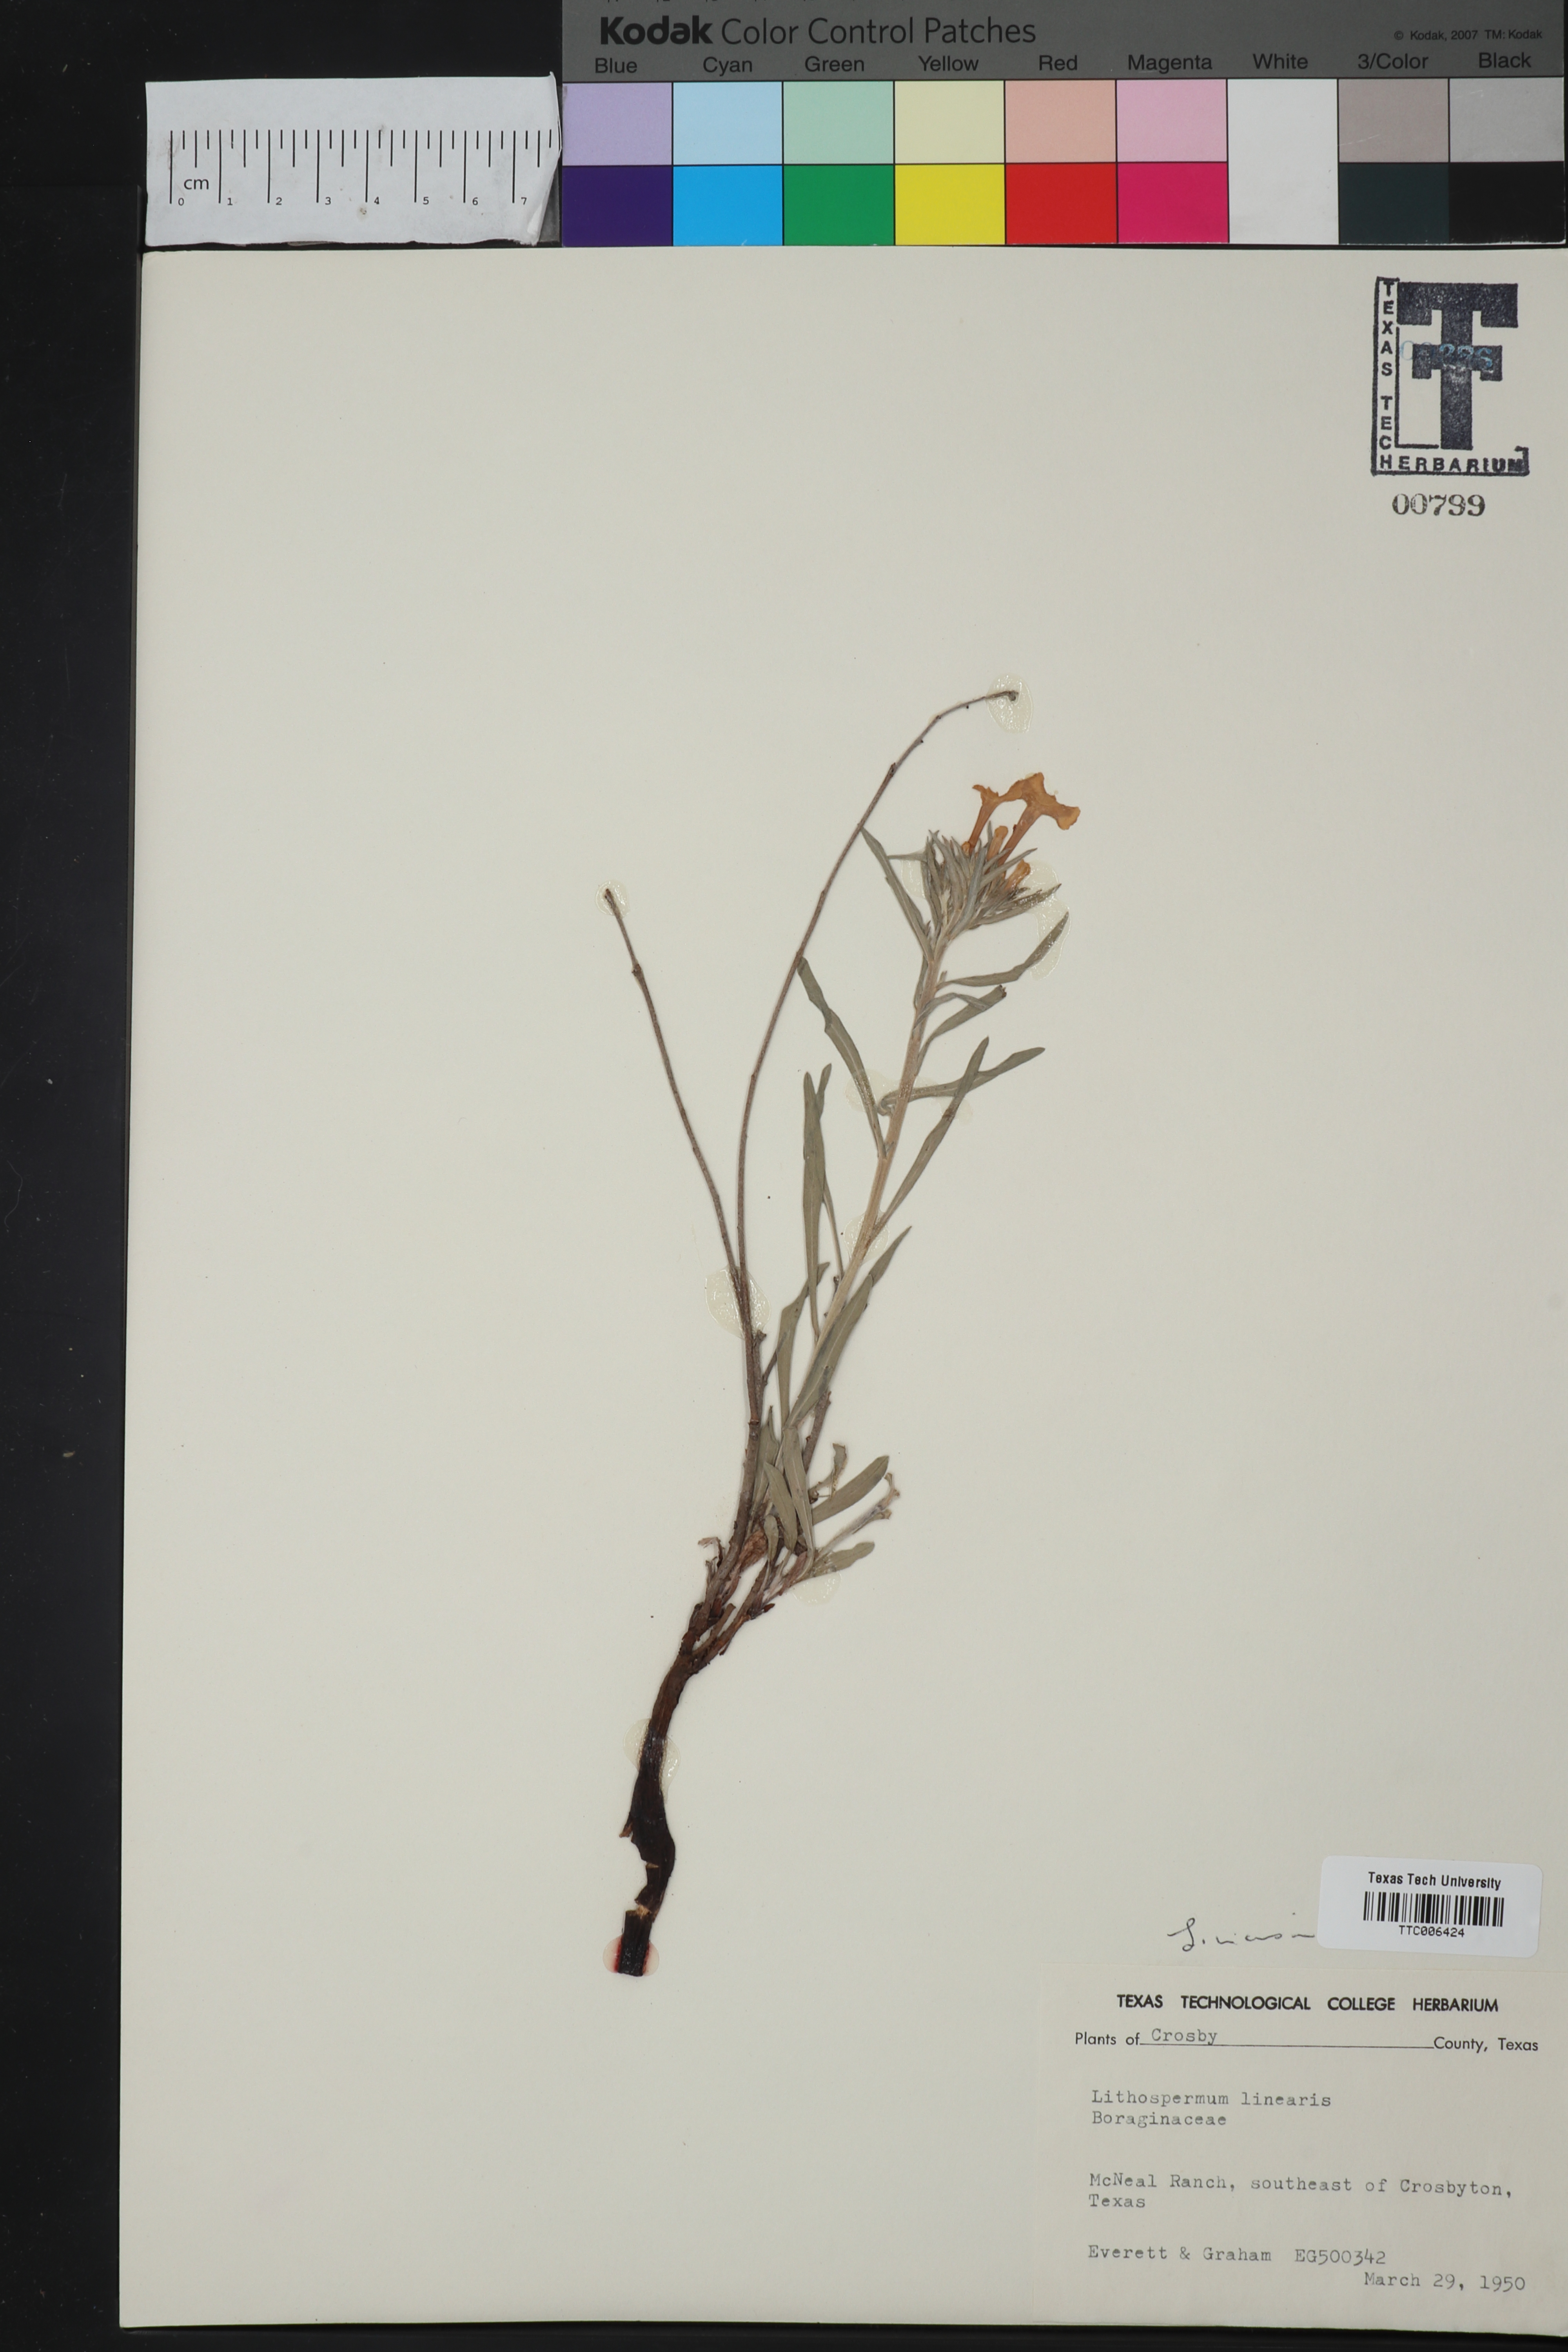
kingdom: Plantae
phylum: Tracheophyta
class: Magnoliopsida
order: Boraginales
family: Boraginaceae
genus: Lithospermum
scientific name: Lithospermum incisum
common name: Fringed gromwell
